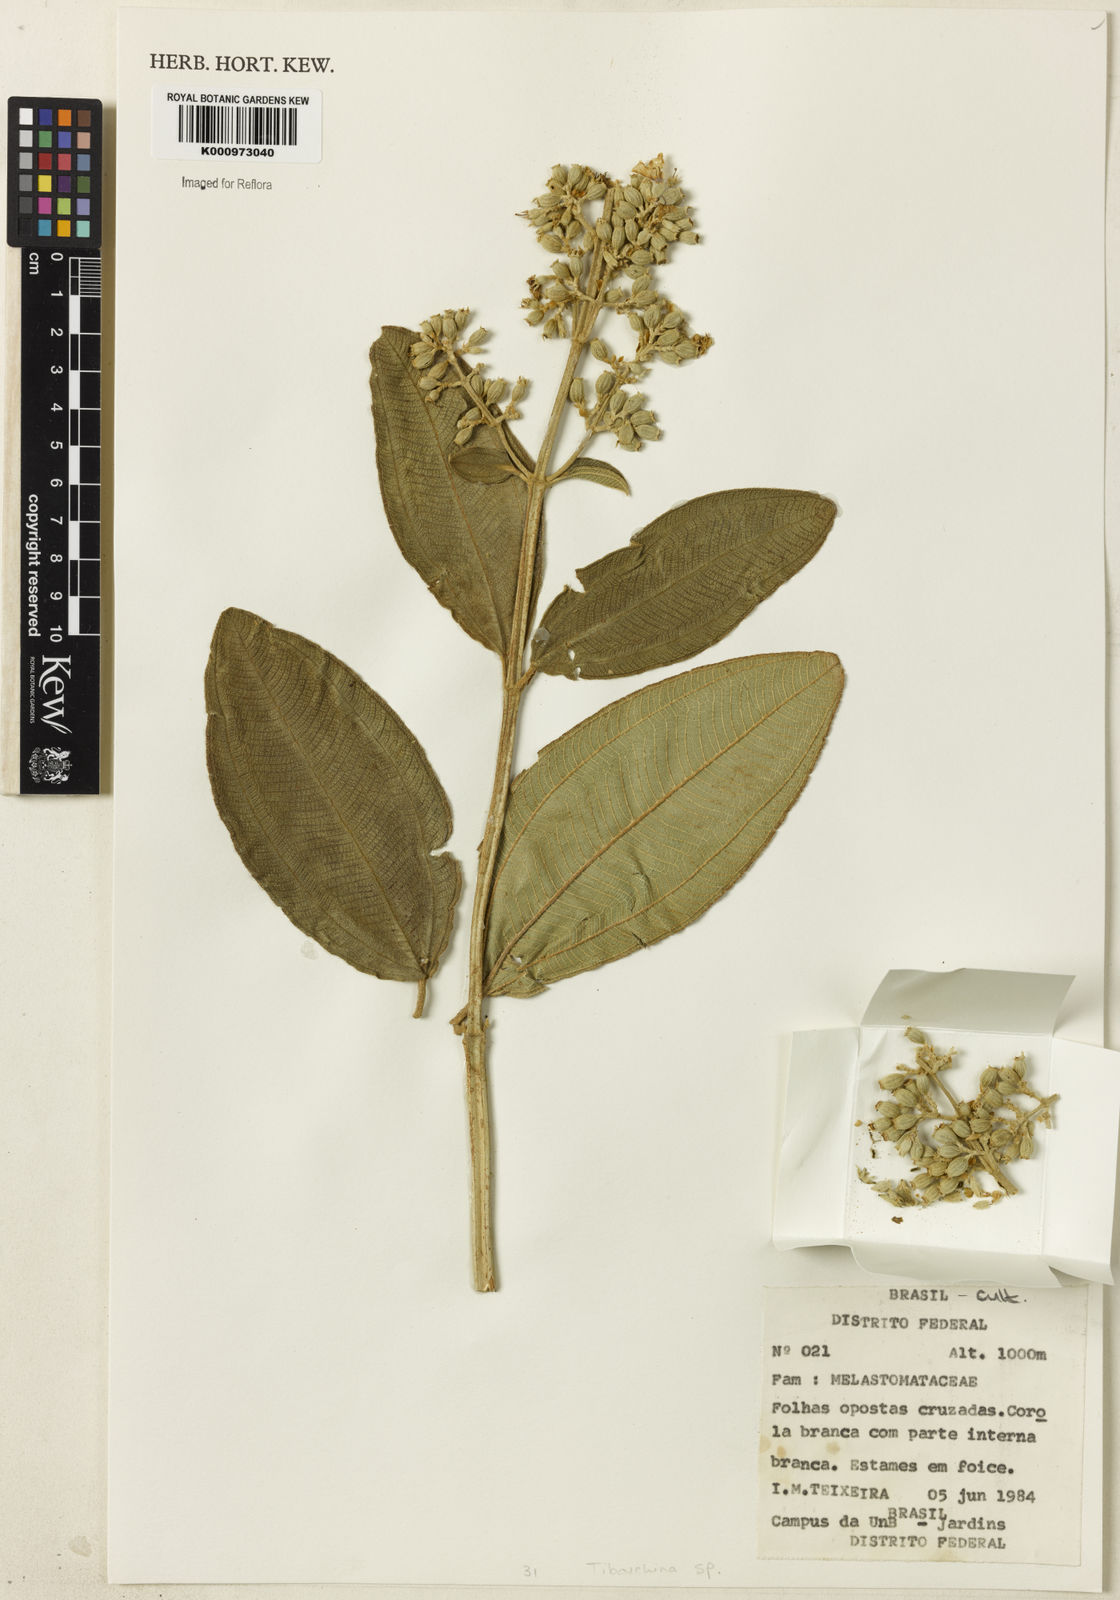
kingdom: Plantae
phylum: Tracheophyta
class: Magnoliopsida
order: Myrtales
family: Melastomataceae
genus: Tibouchina
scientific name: Tibouchina
